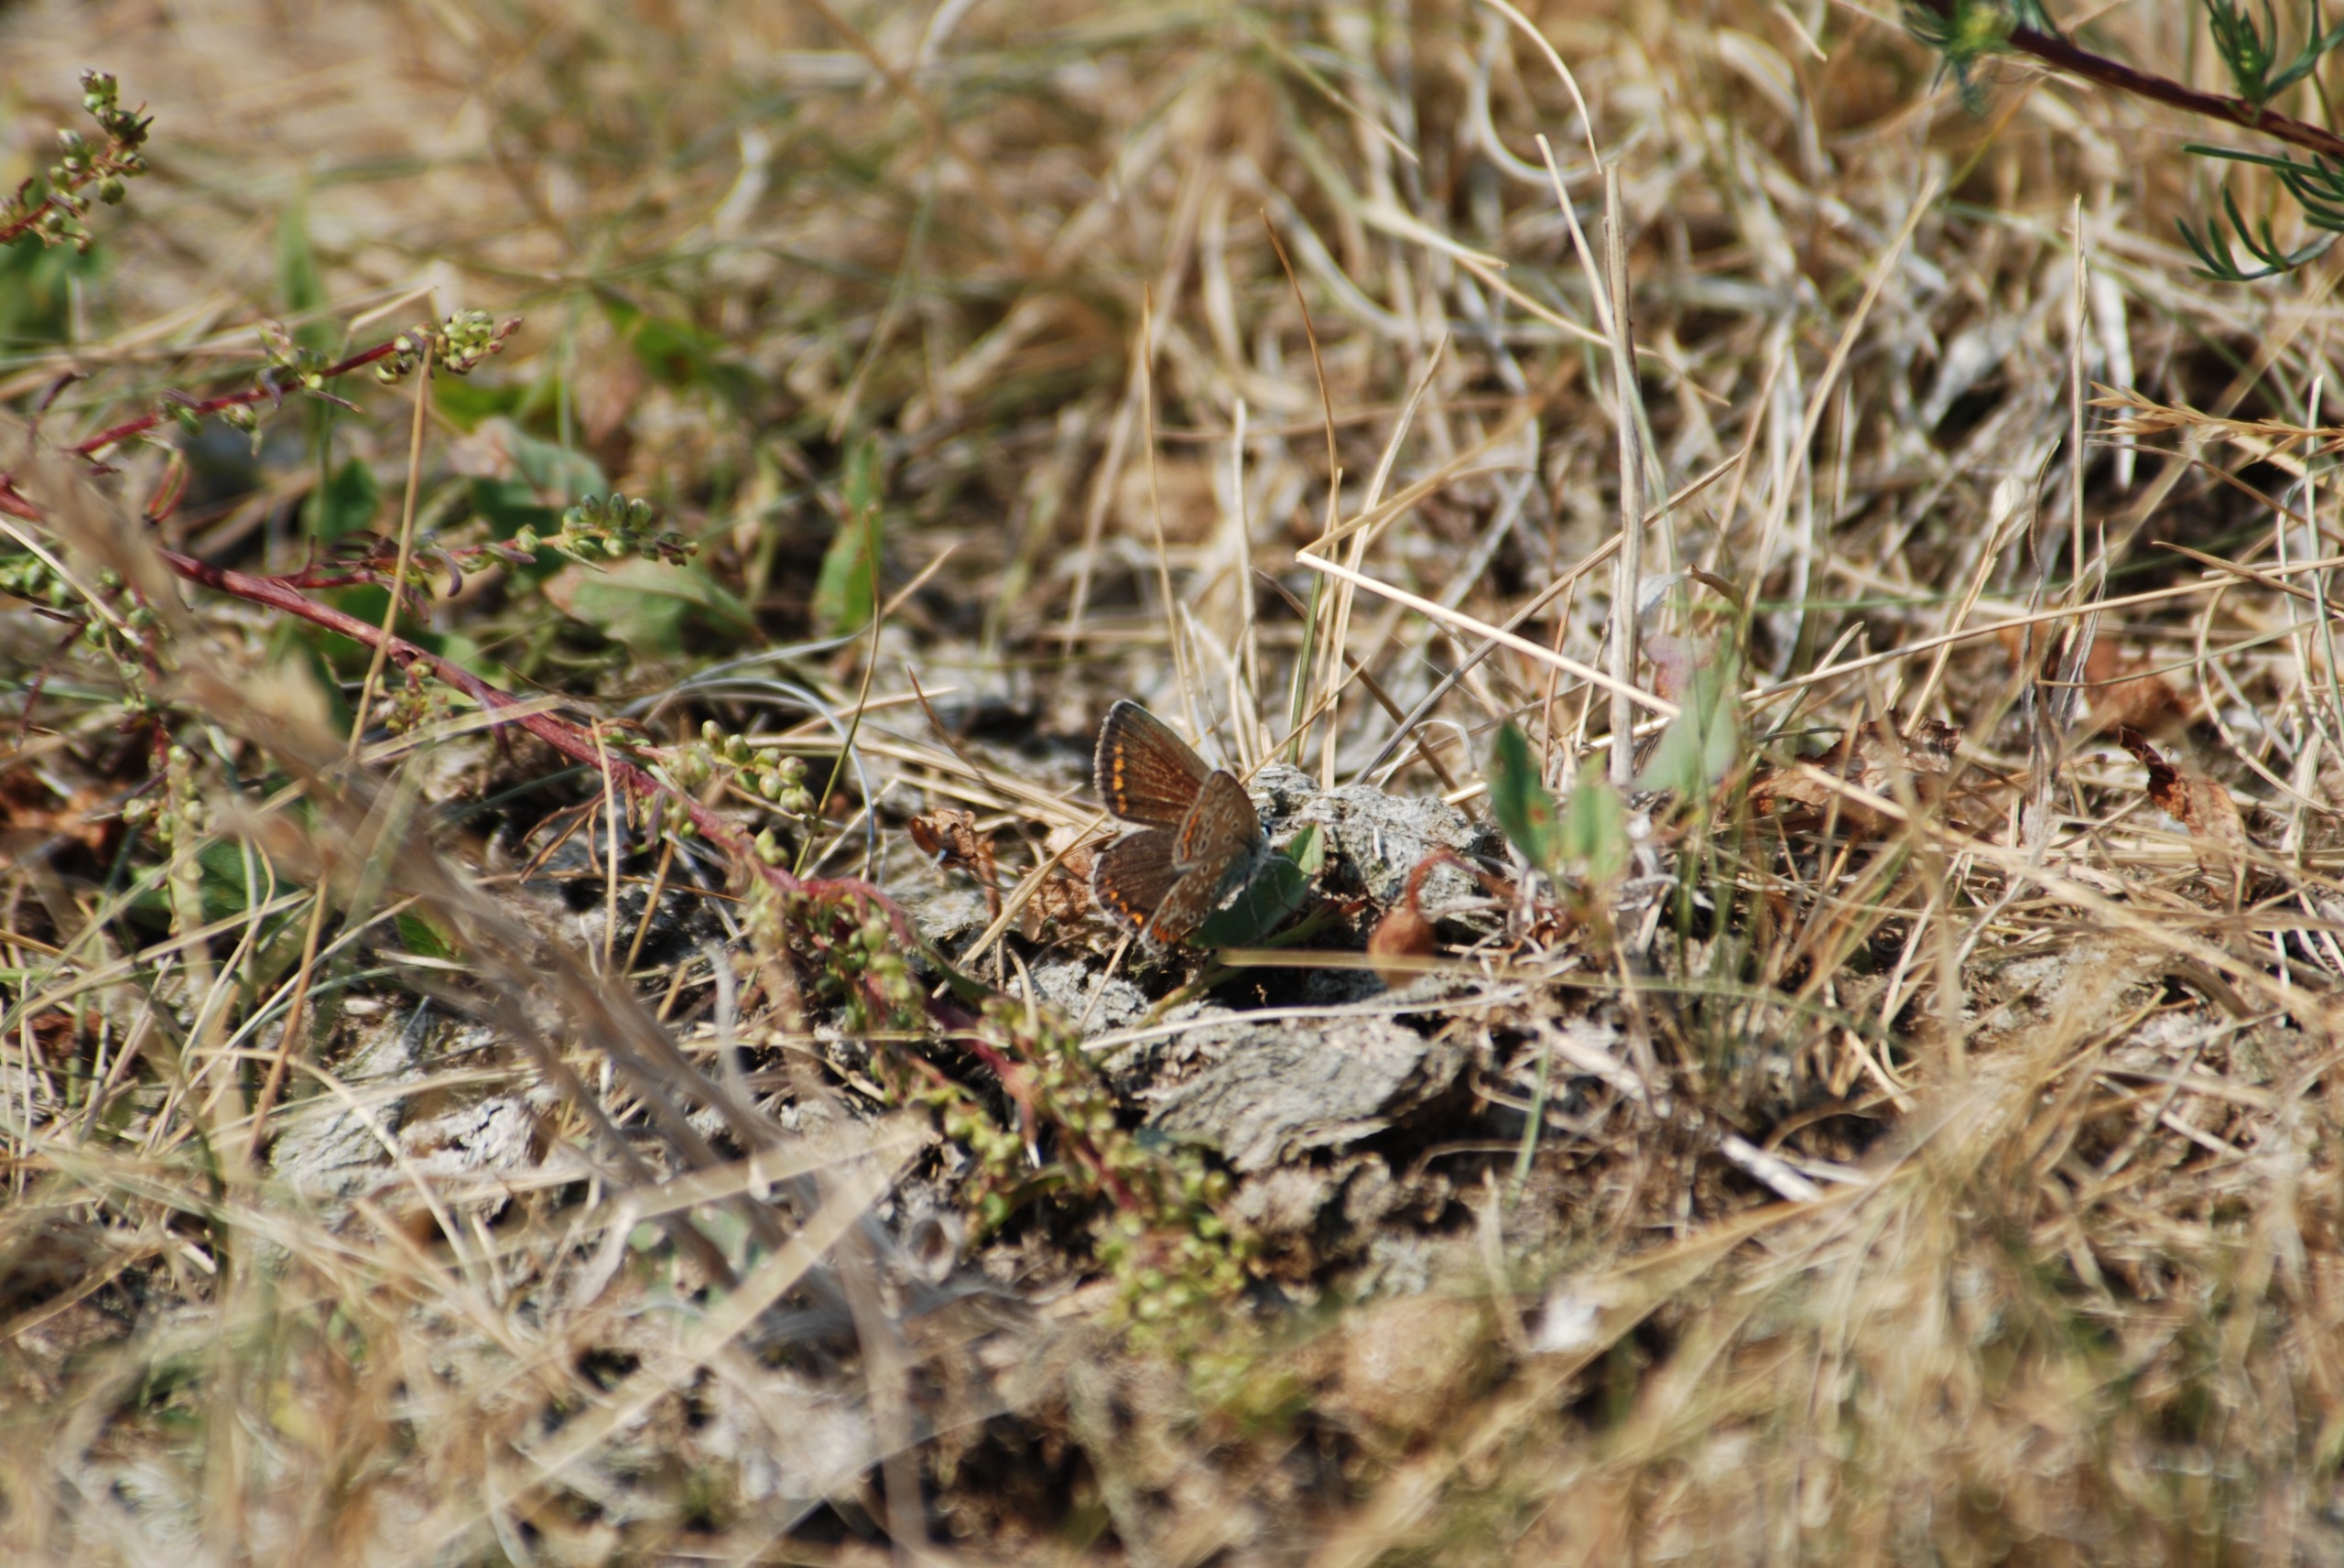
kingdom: Animalia
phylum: Arthropoda
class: Insecta
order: Lepidoptera
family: Lycaenidae
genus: Polyommatus
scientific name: Polyommatus icarus
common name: Almindelig blåfugl
